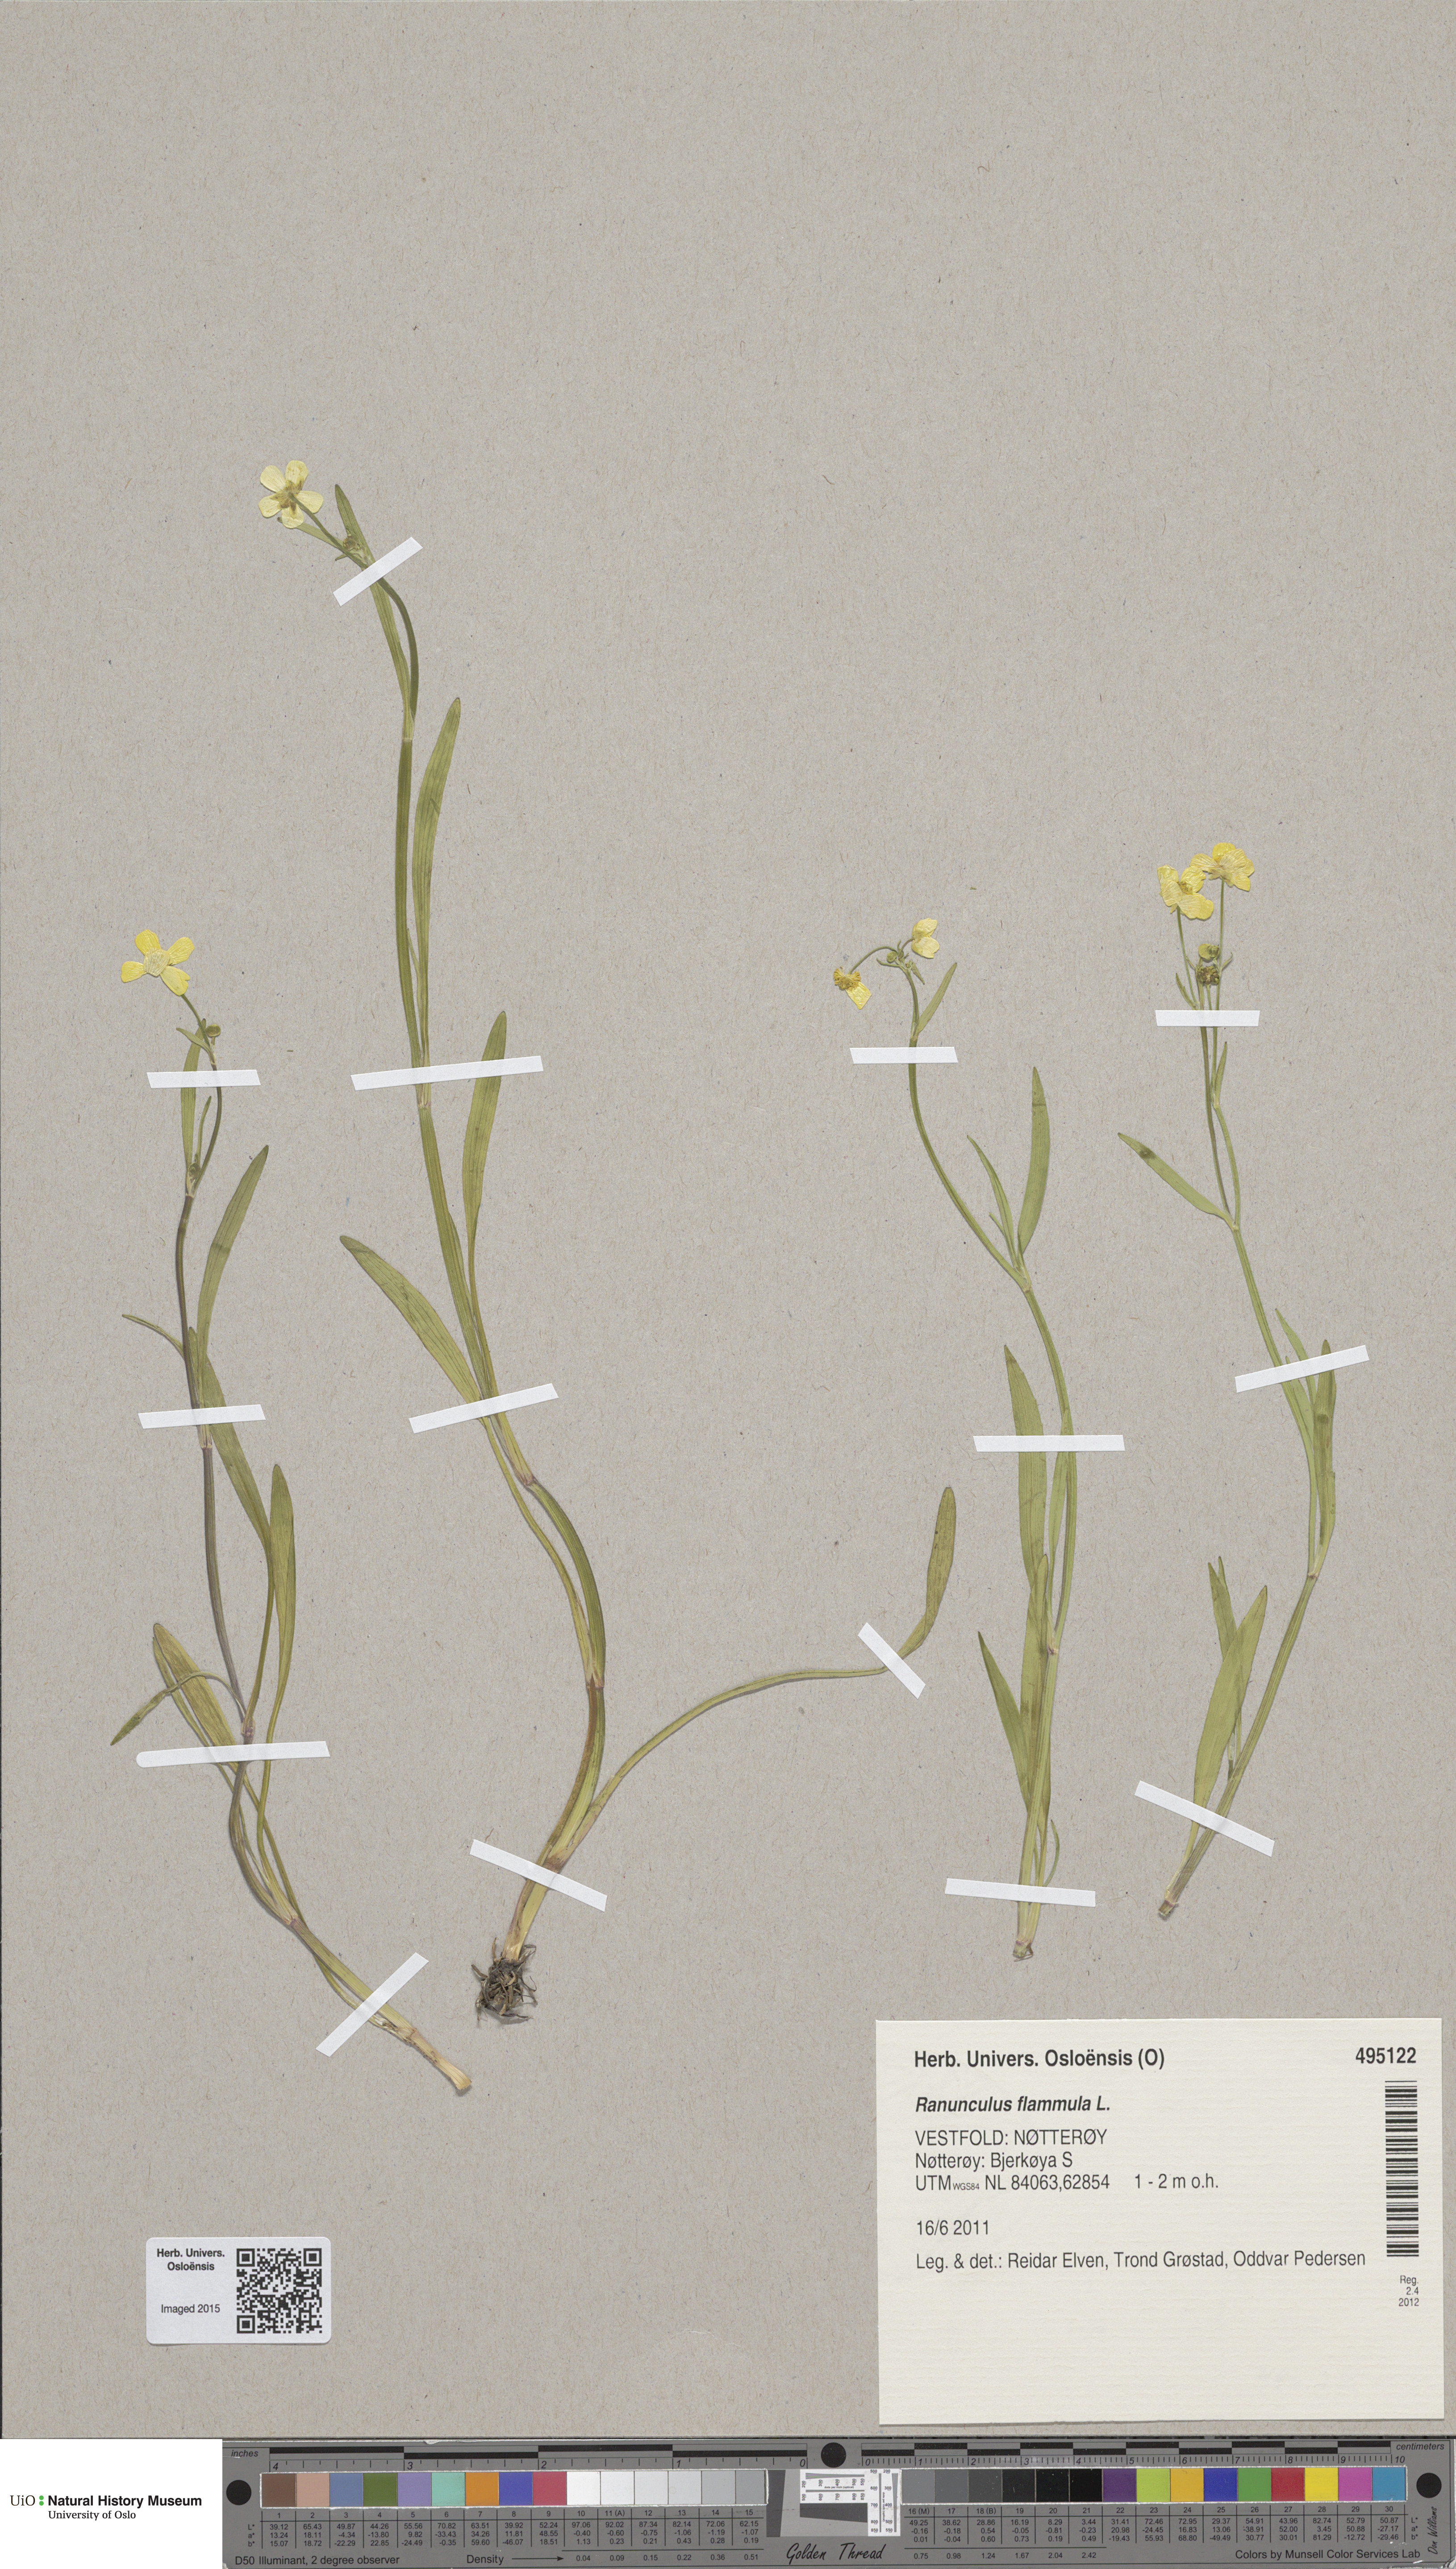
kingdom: Plantae
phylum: Tracheophyta
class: Magnoliopsida
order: Ranunculales
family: Ranunculaceae
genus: Ranunculus
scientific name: Ranunculus flammula
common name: Lesser spearwort
